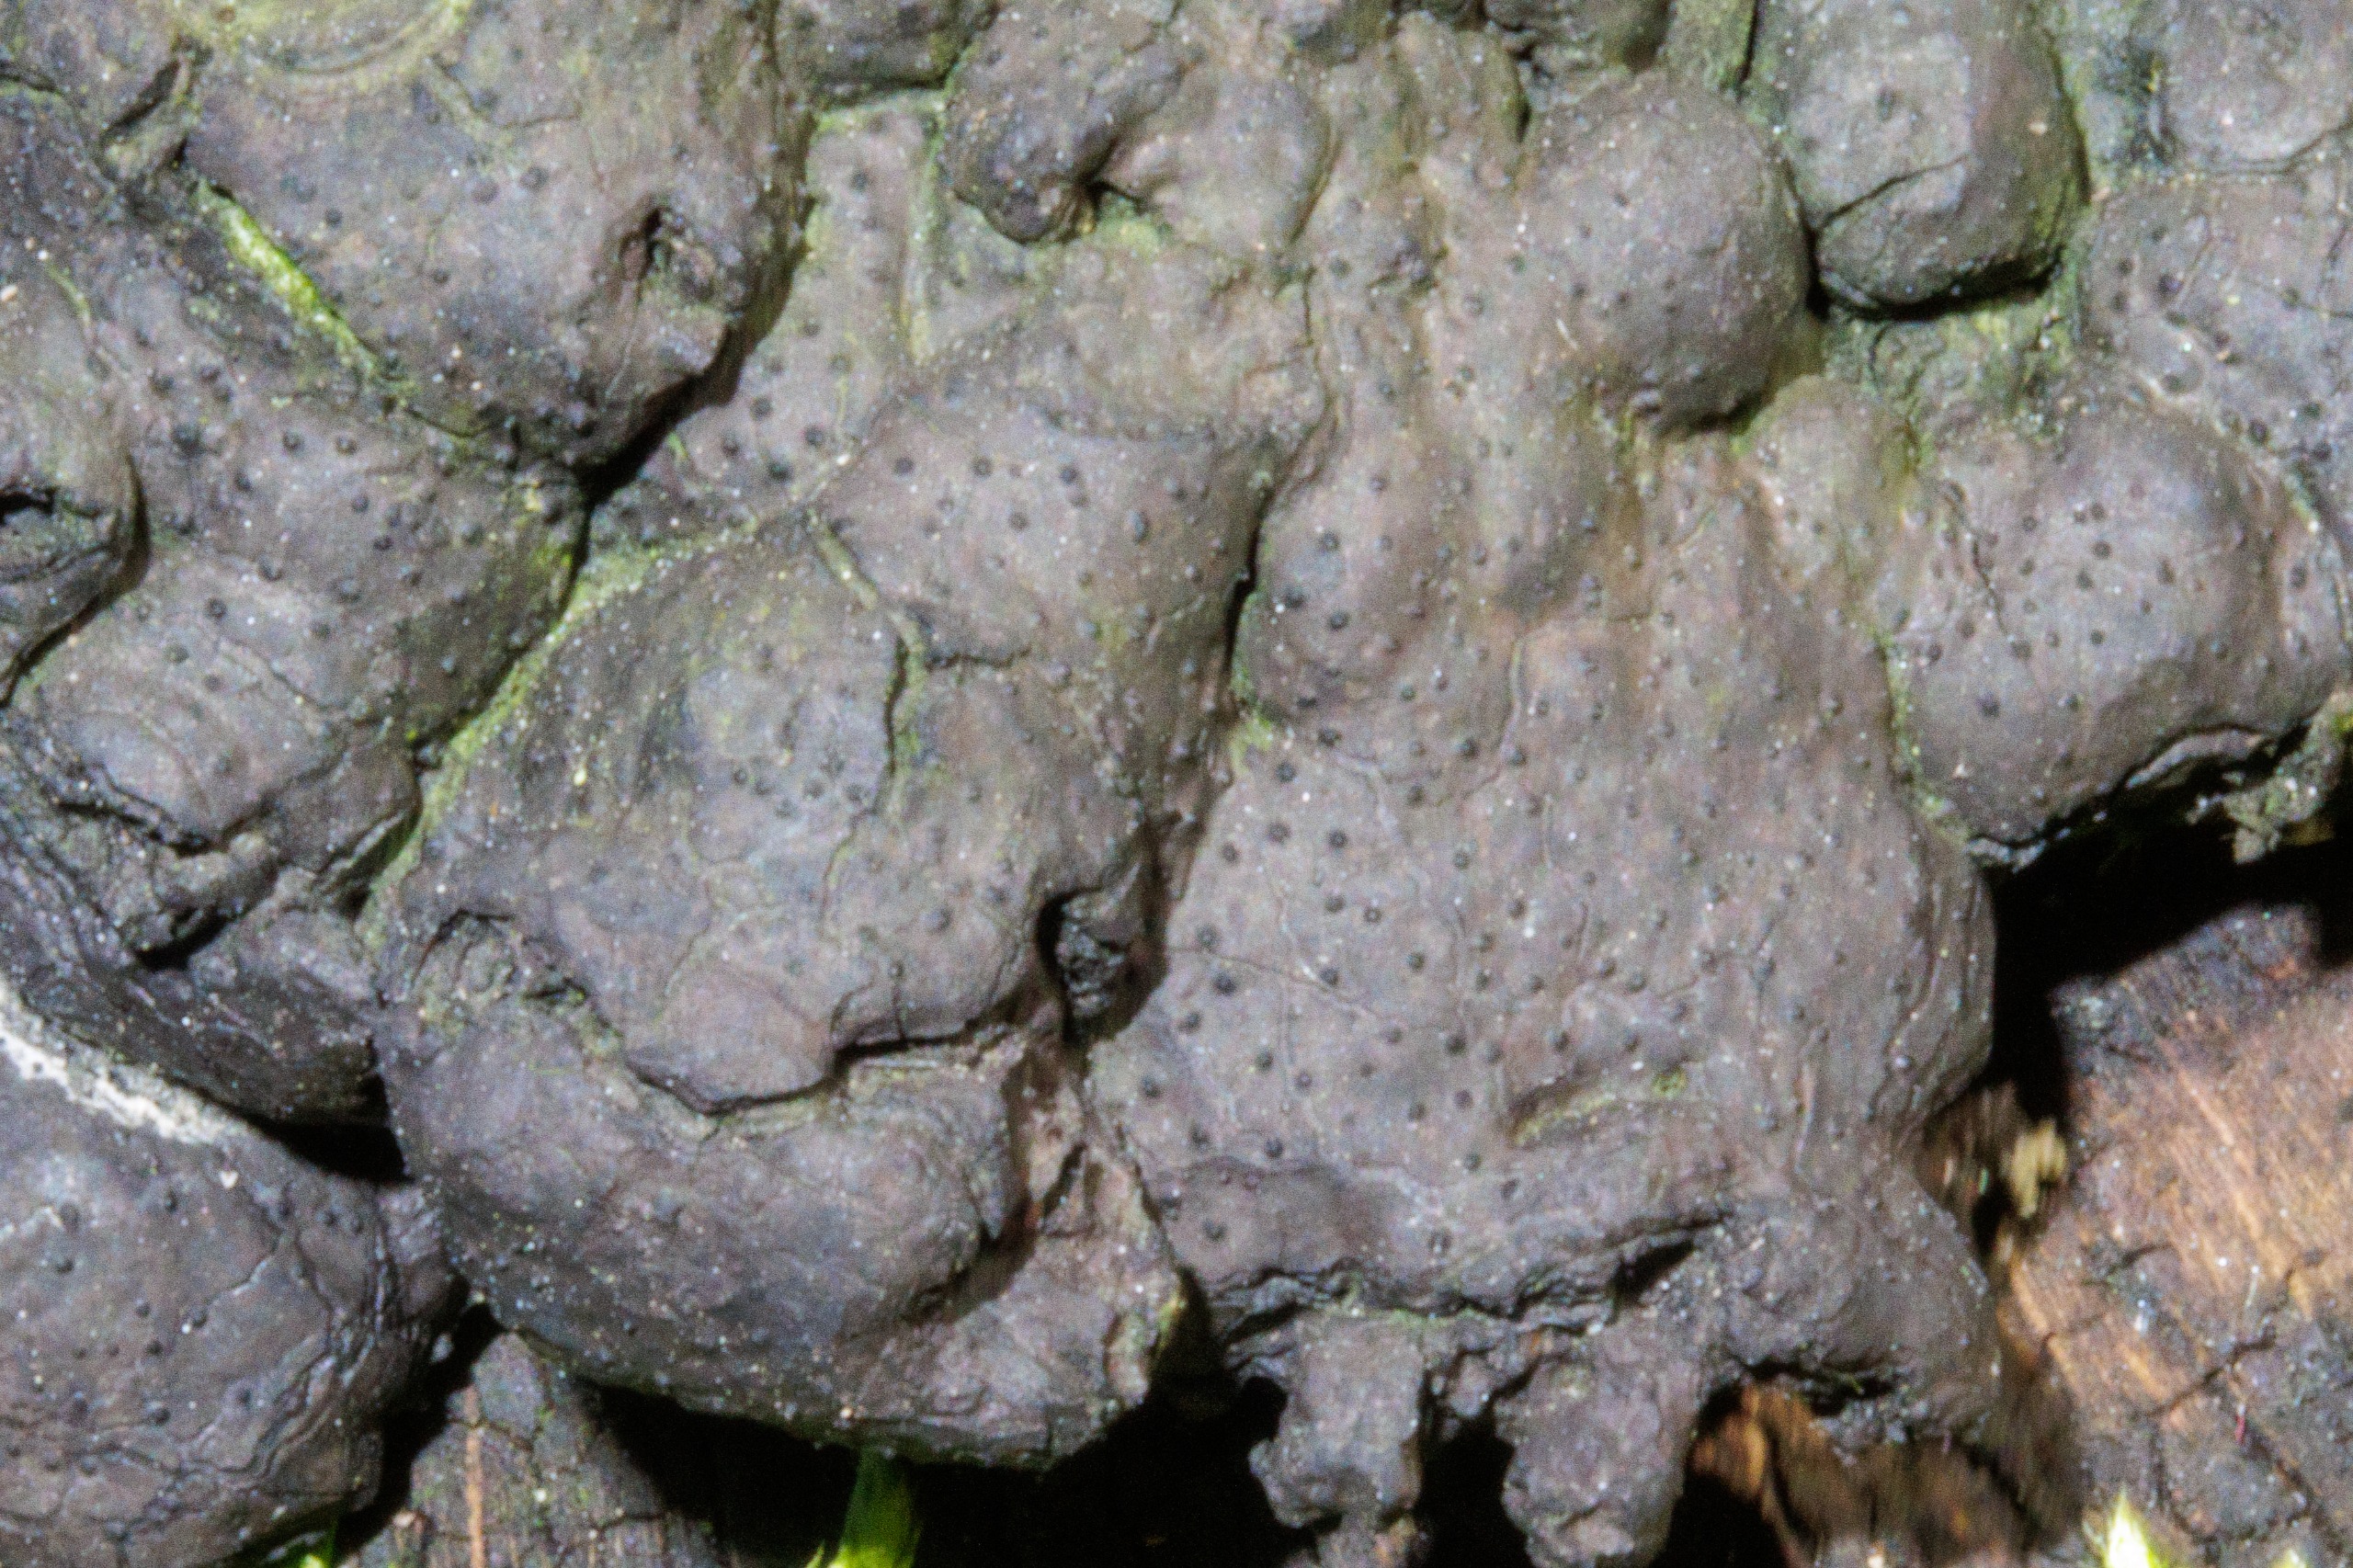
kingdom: Fungi
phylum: Ascomycota
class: Sordariomycetes
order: Xylariales
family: Xylariaceae
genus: Kretzschmaria
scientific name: Kretzschmaria deusta
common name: Stor kulsvamp
